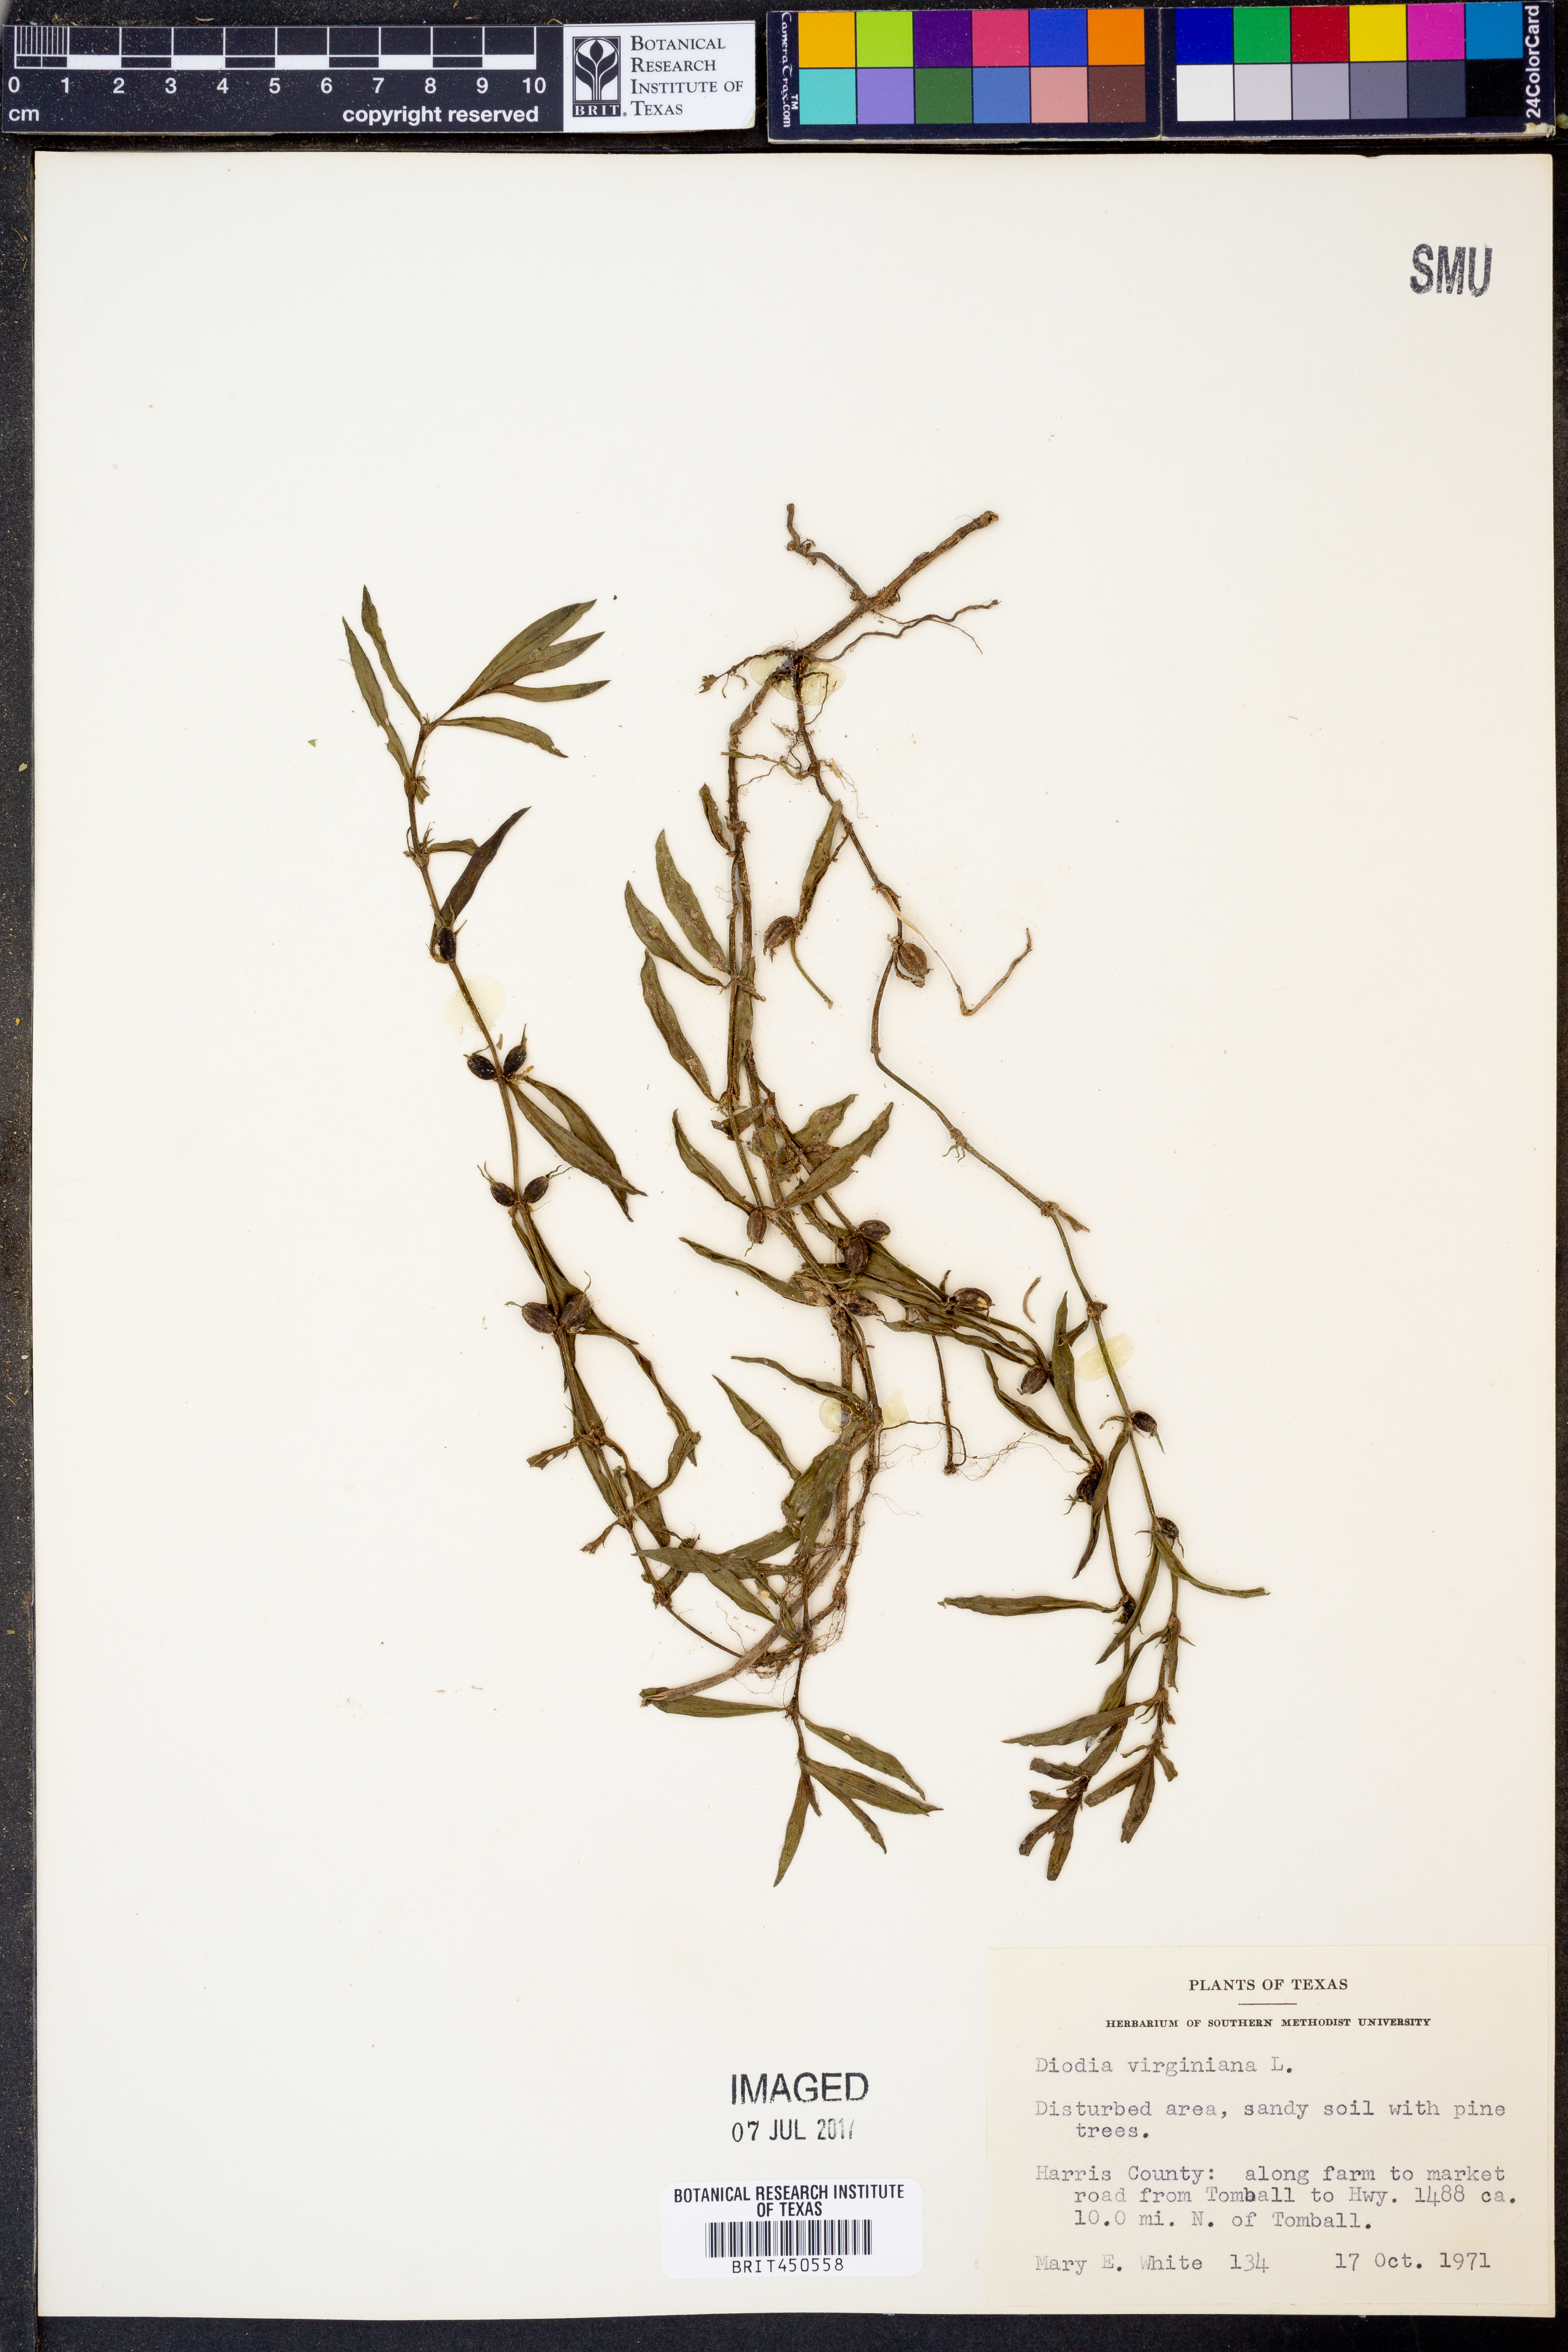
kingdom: Plantae
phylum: Tracheophyta
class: Magnoliopsida
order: Gentianales
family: Rubiaceae
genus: Diodia
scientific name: Diodia virginiana
